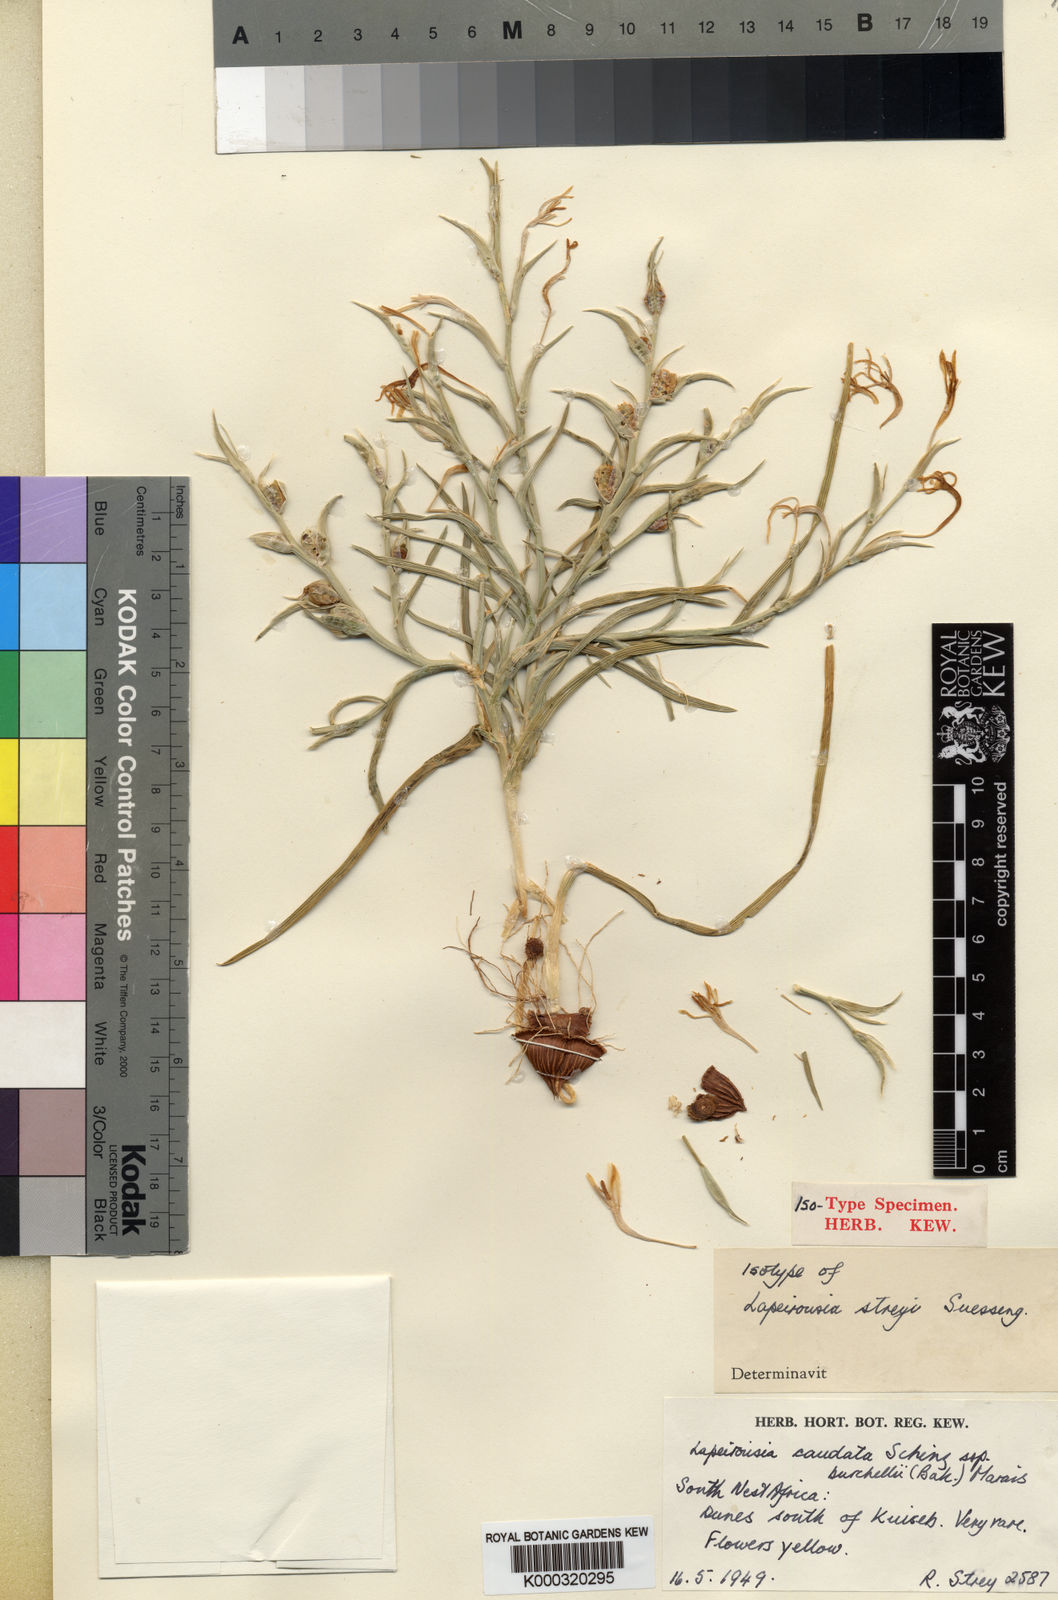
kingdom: Plantae
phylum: Tracheophyta
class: Liliopsida
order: Asparagales
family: Iridaceae
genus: Lapeirousia
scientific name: Lapeirousia littoralis
